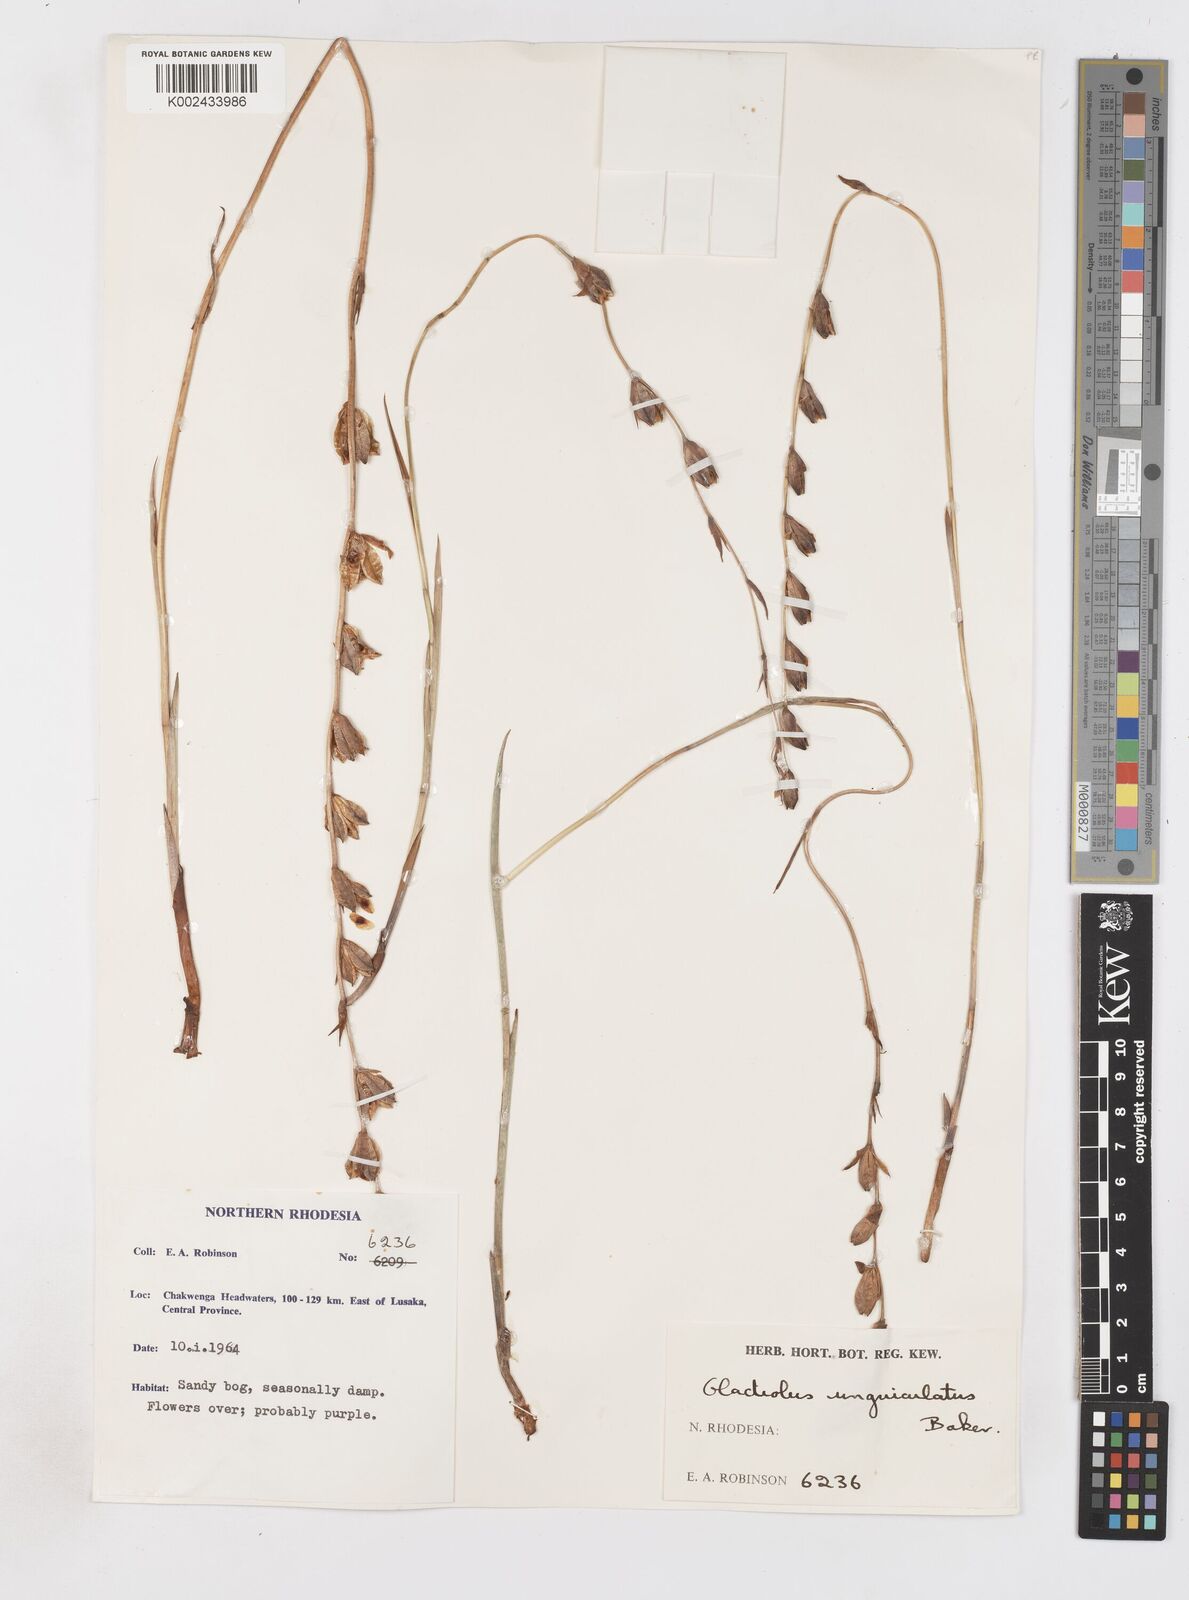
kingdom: Plantae
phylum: Tracheophyta
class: Liliopsida
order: Asparagales
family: Iridaceae
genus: Gladiolus
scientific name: Gladiolus atropurpureus
